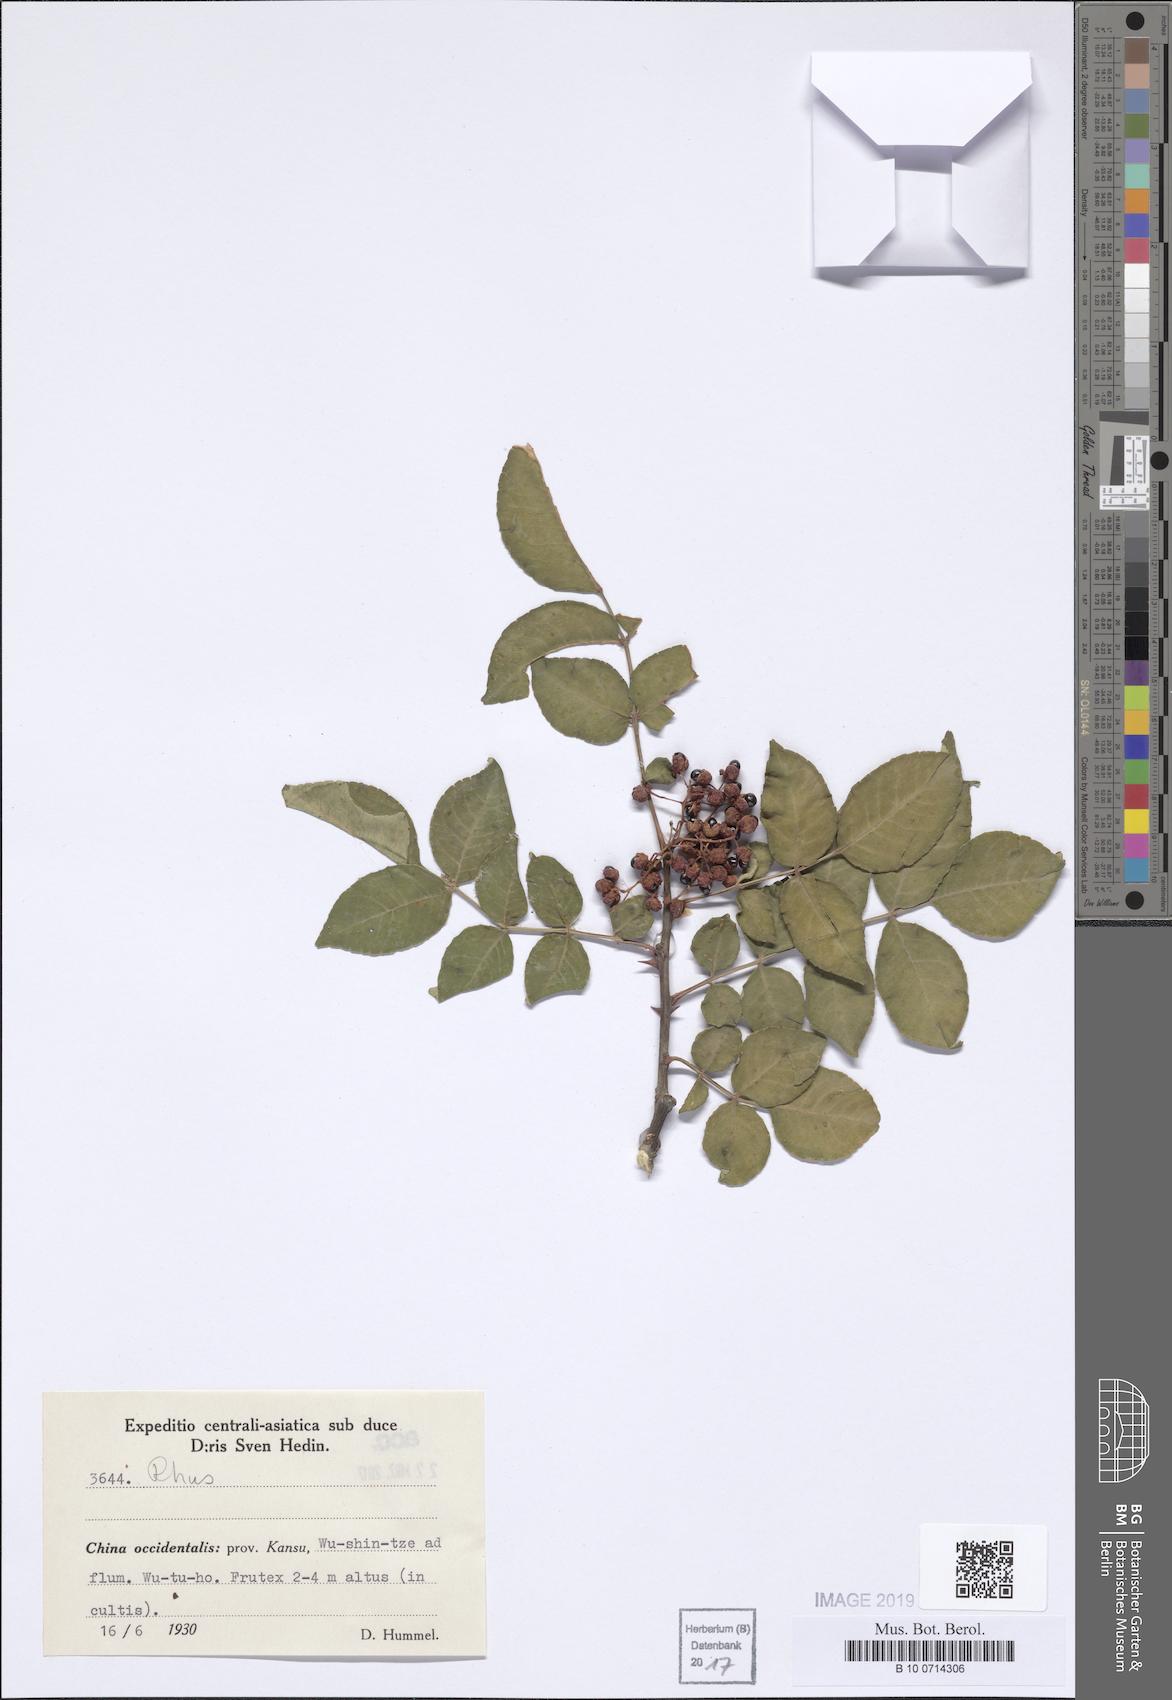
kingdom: Plantae
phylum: Tracheophyta
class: Magnoliopsida
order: Sapindales
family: Anacardiaceae
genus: Rhus
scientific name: Rhus
